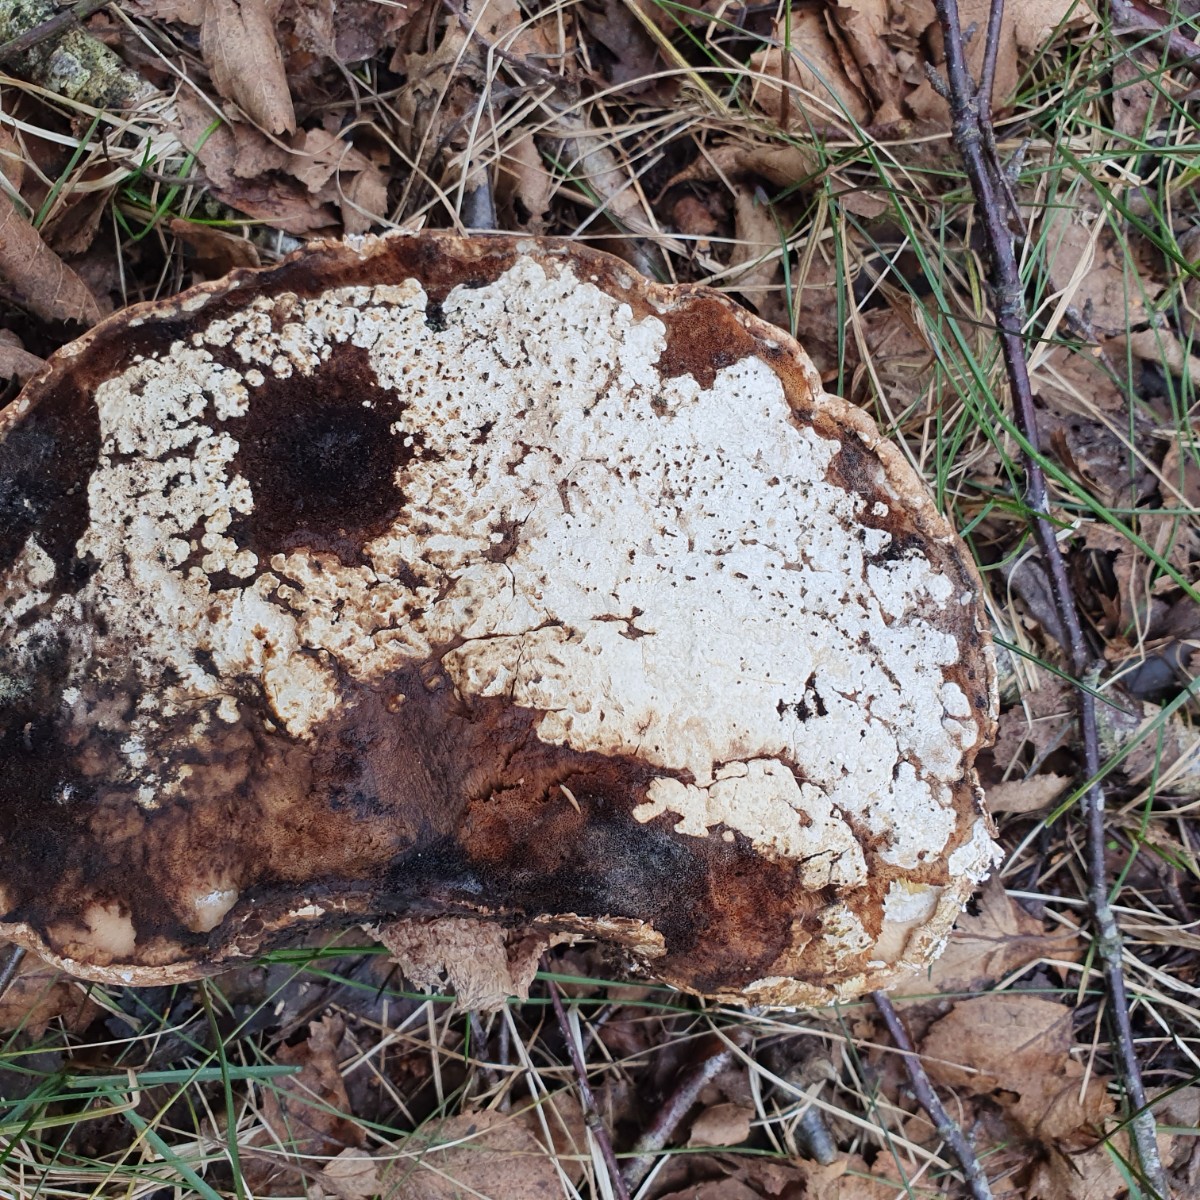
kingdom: Fungi
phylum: Ascomycota
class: Sordariomycetes
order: Hypocreales
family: Hypocreaceae
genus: Trichoderma
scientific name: Trichoderma pulvinatum
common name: snyltende kødkerne
